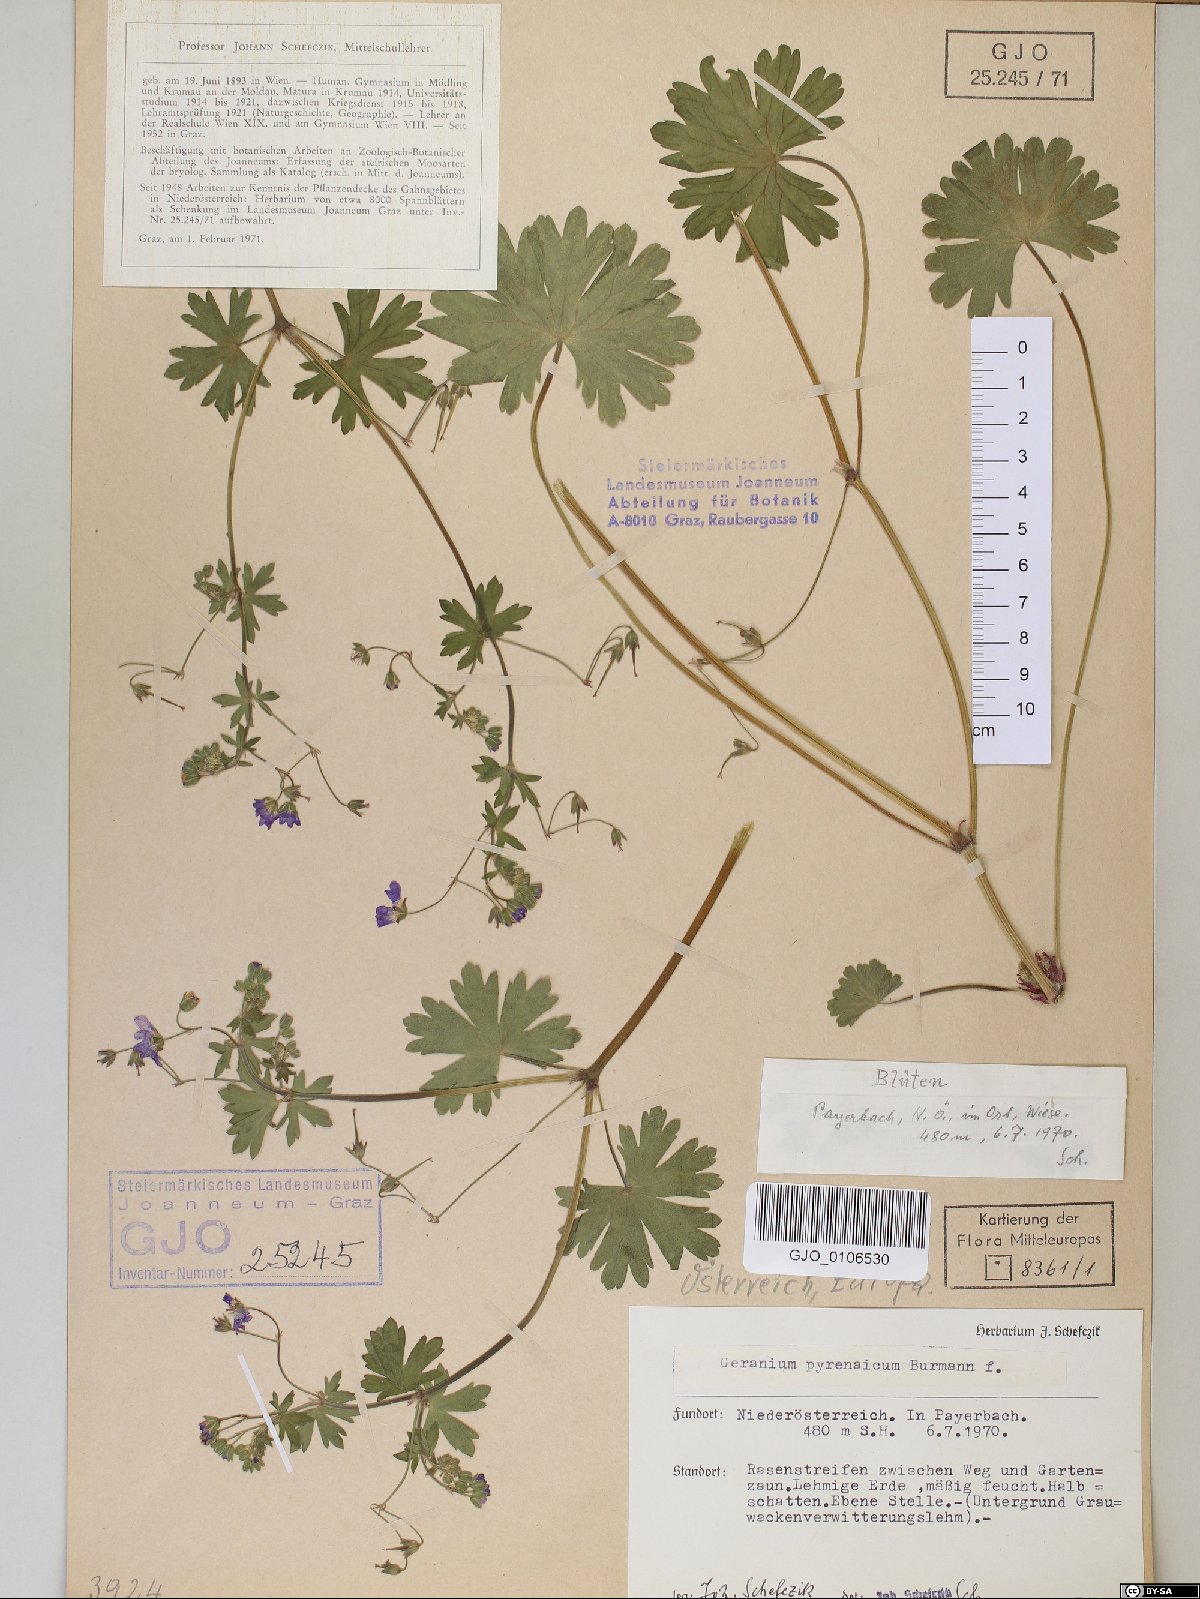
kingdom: Plantae
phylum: Tracheophyta
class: Magnoliopsida
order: Geraniales
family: Geraniaceae
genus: Geranium
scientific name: Geranium pyrenaicum
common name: Hedgerow crane's-bill
